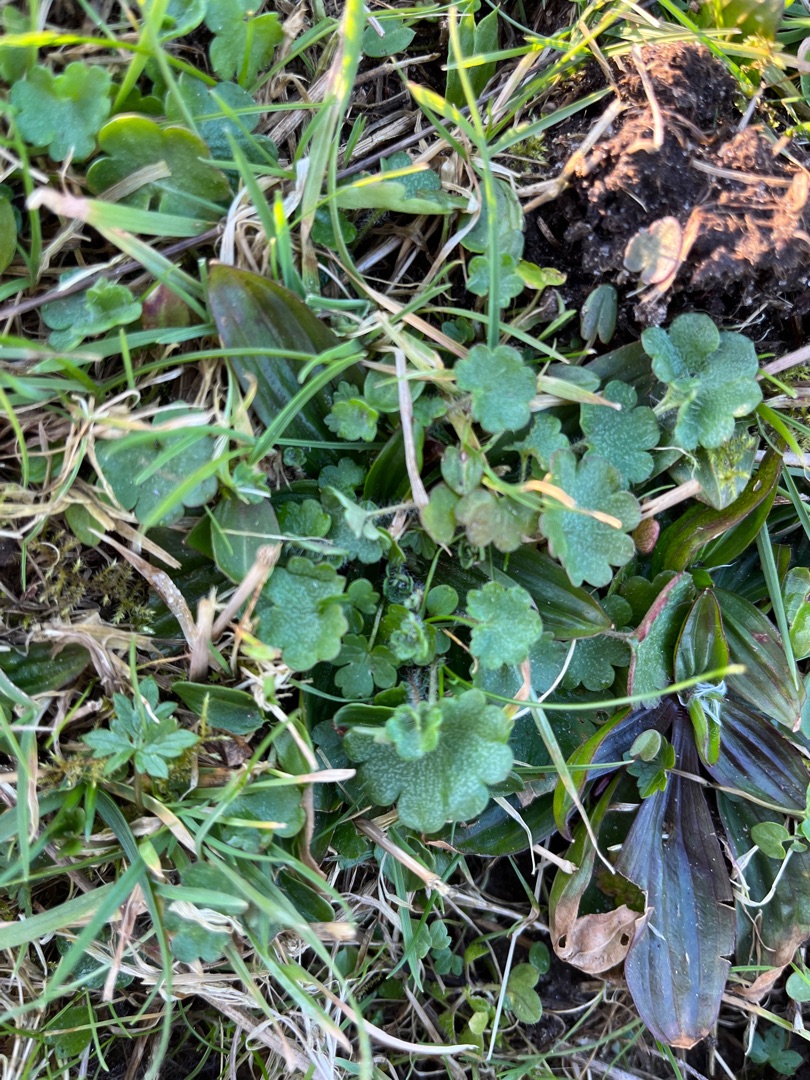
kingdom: Plantae
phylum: Tracheophyta
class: Magnoliopsida
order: Saxifragales
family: Saxifragaceae
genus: Saxifraga
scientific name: Saxifraga granulata
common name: Kornet stenbræk
